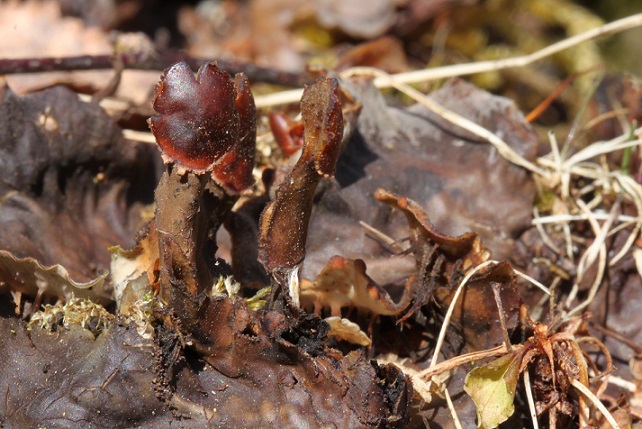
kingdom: Fungi
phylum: Ascomycota
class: Lecanoromycetes
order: Peltigerales
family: Peltigeraceae
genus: Peltigera
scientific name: Peltigera praetextata
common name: kruset skjoldlav
